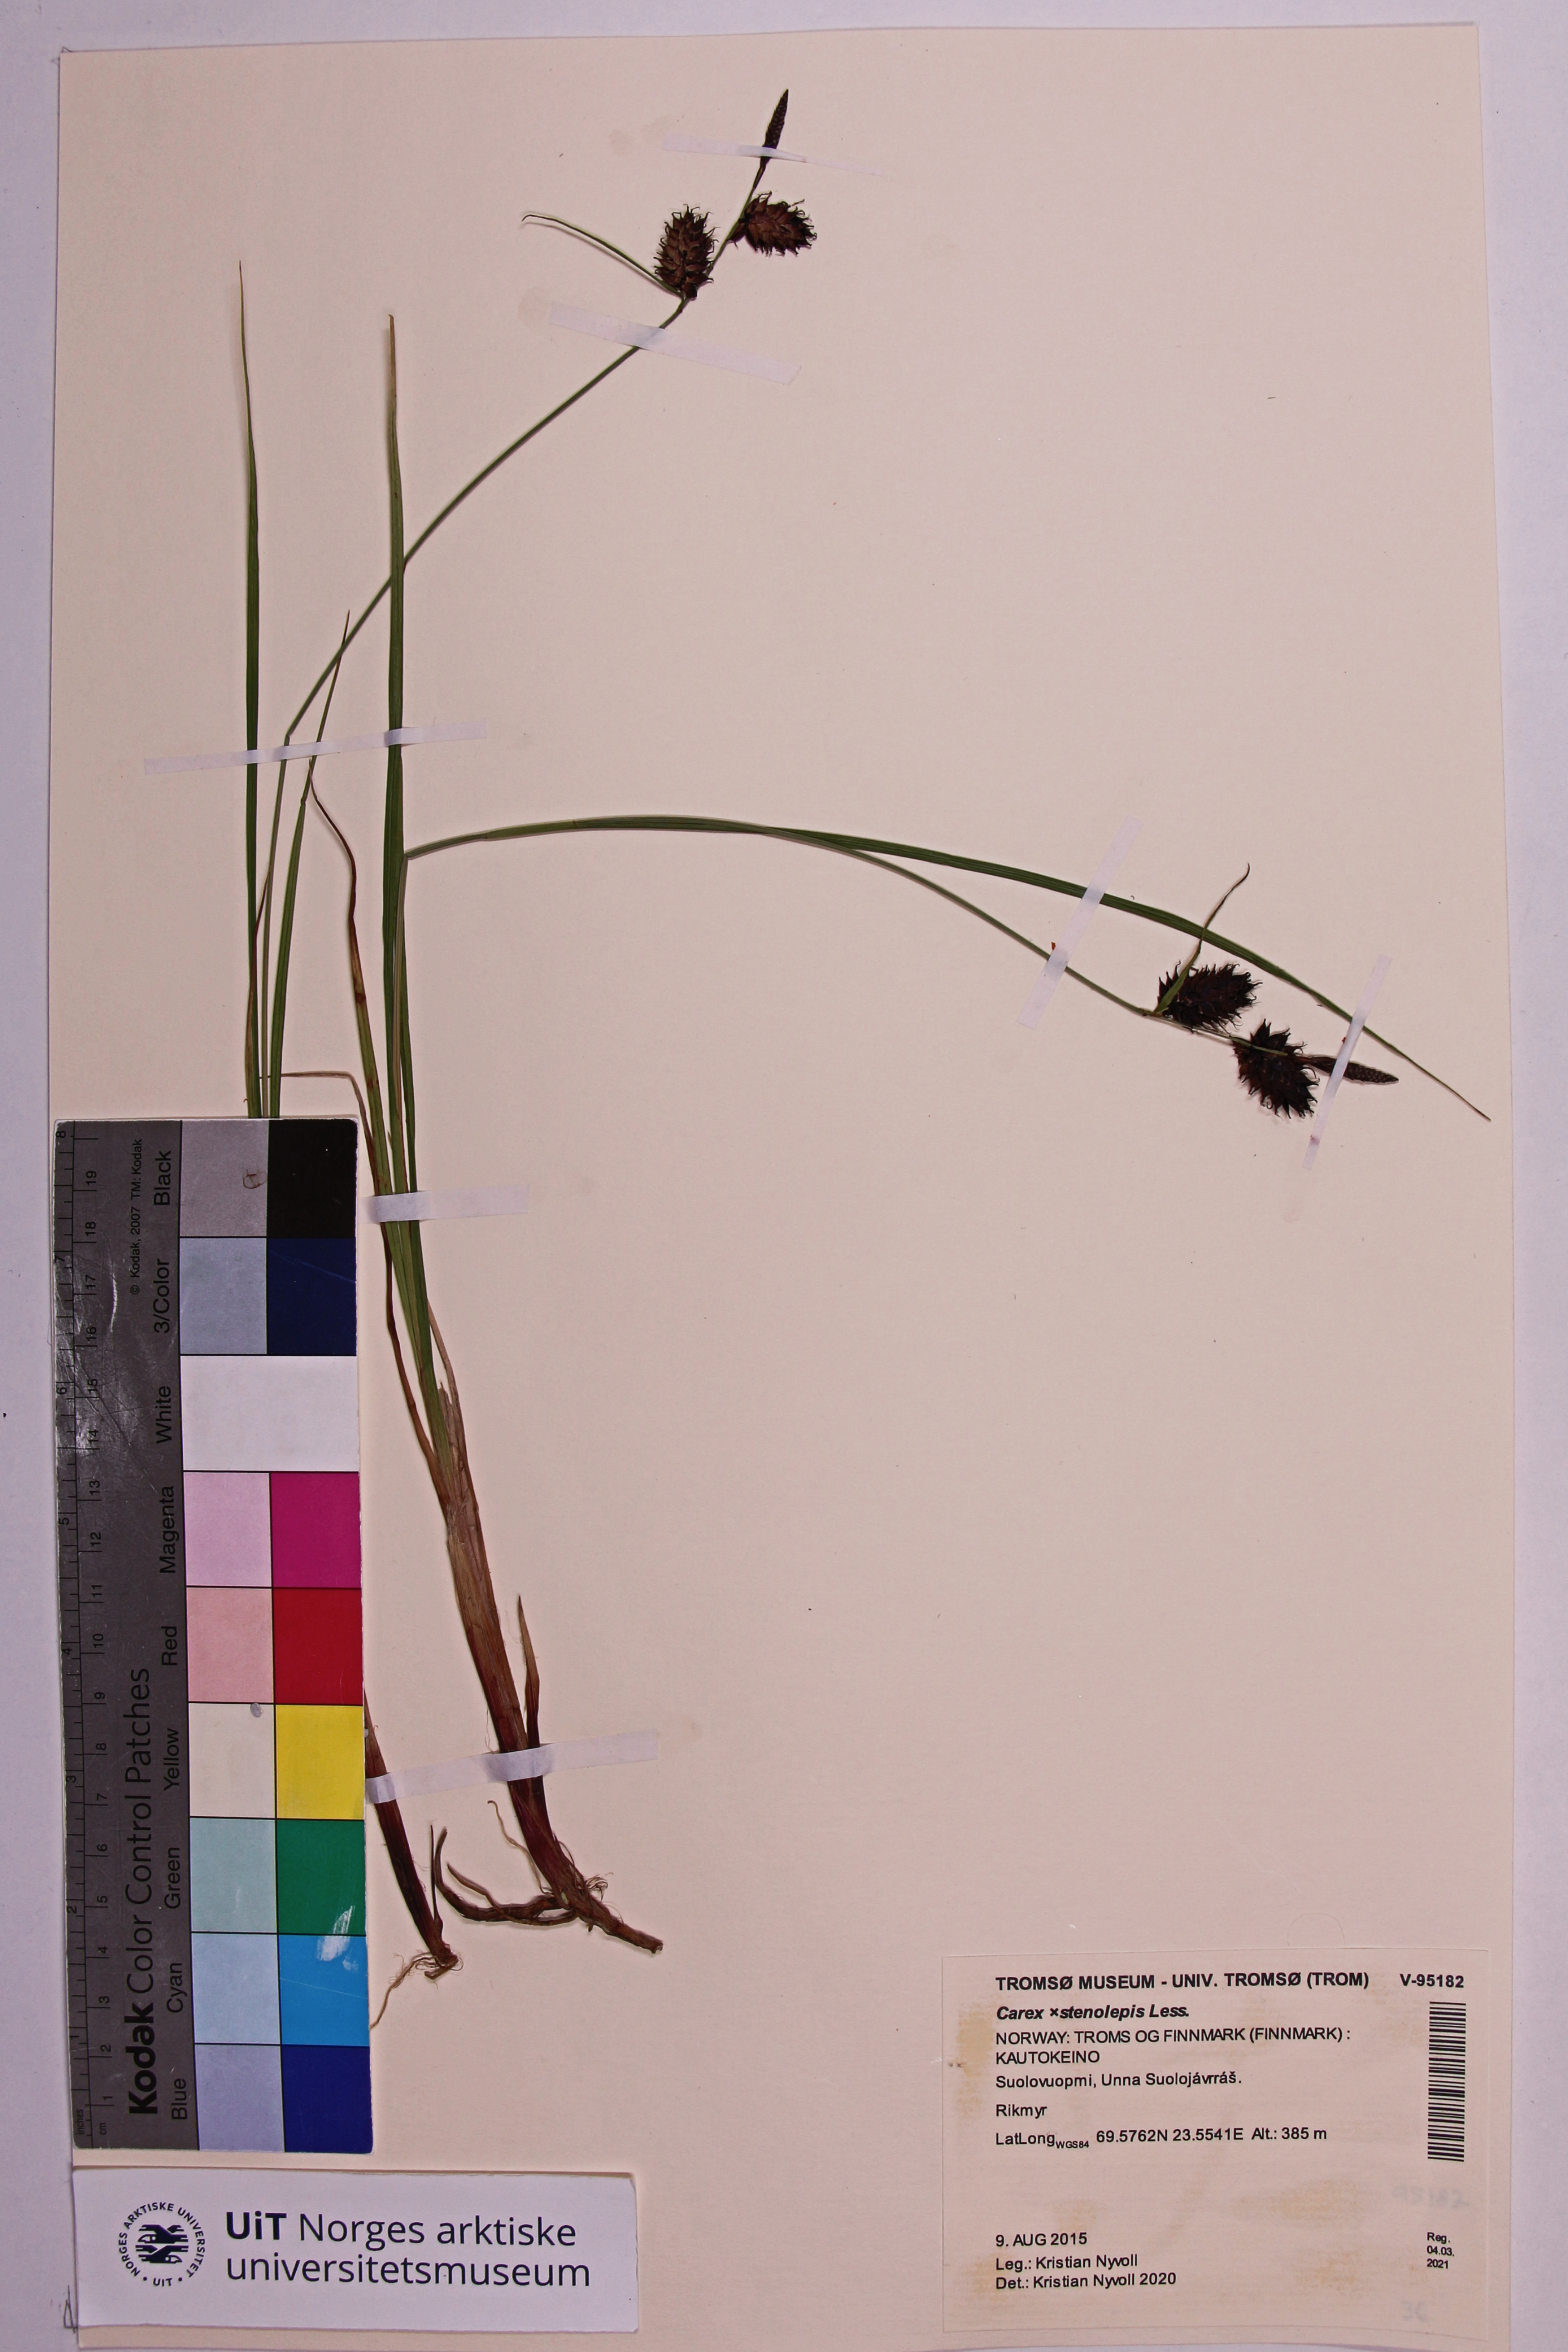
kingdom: Plantae
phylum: Tracheophyta
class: Liliopsida
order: Poales
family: Cyperaceae
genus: Carex
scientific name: Carex rostrata
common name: Bottle sedge
